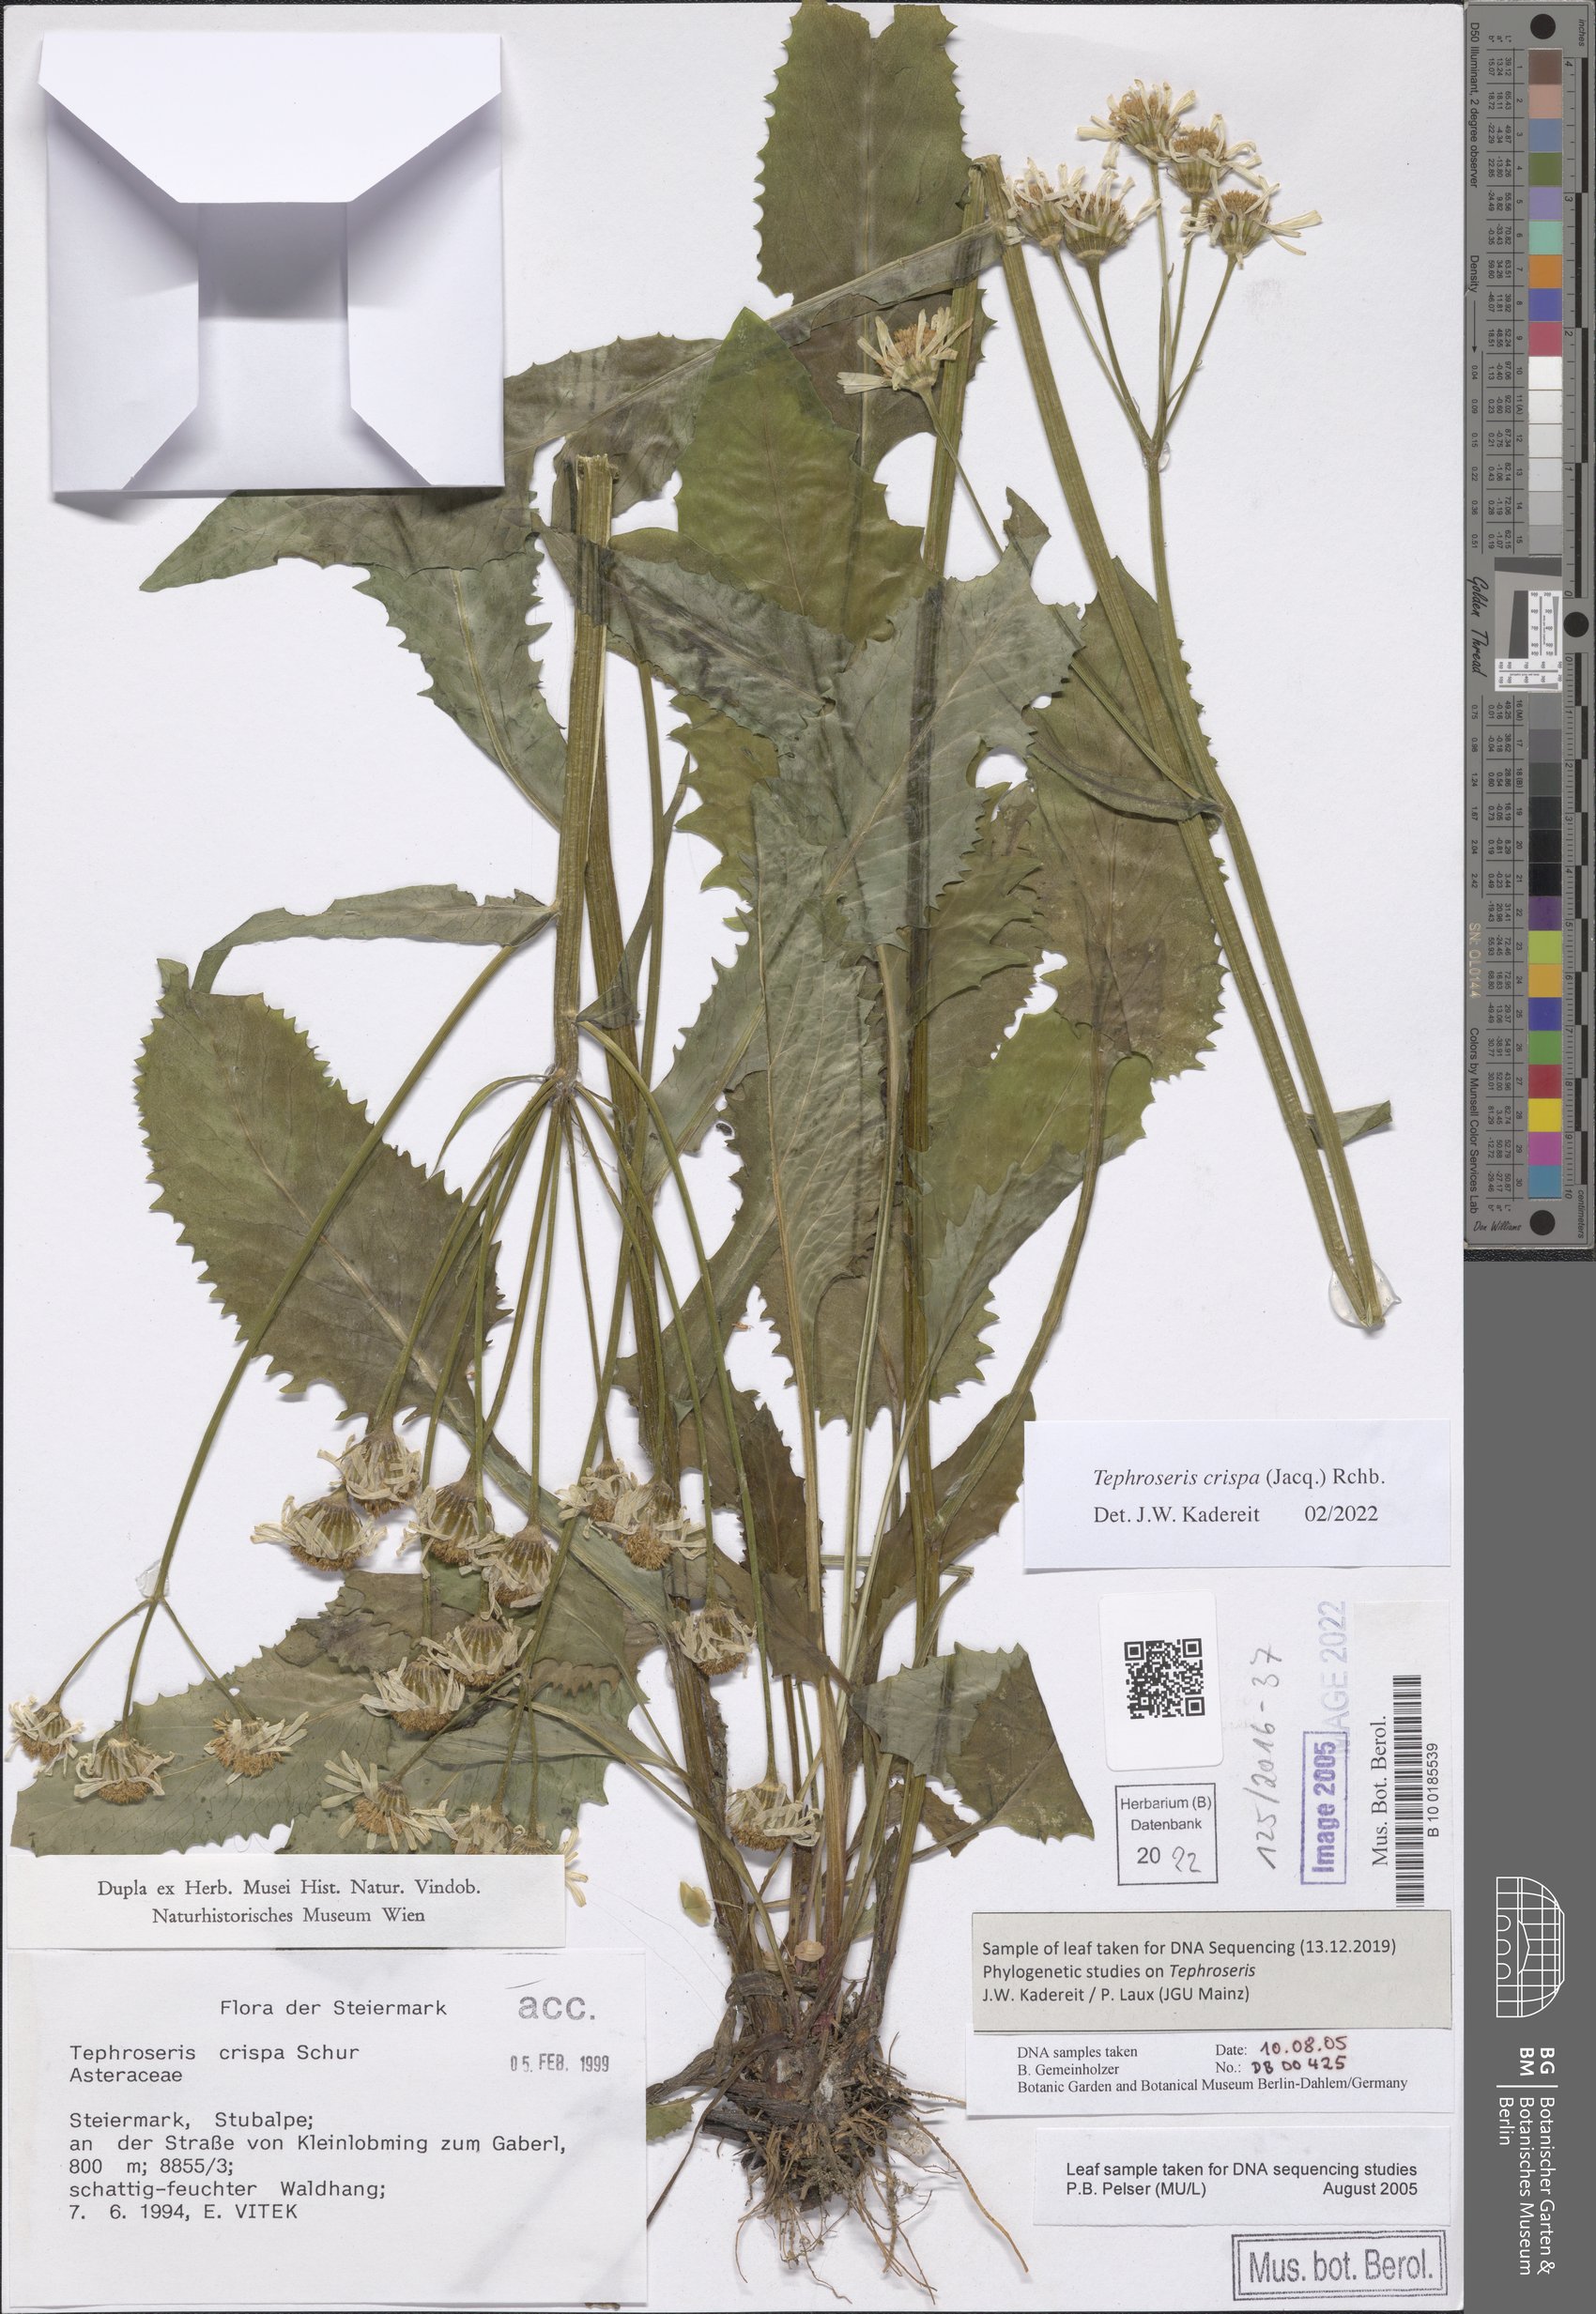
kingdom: Plantae
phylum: Tracheophyta
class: Magnoliopsida
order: Asterales
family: Asteraceae
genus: Tephroseris
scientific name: Tephroseris crispa
